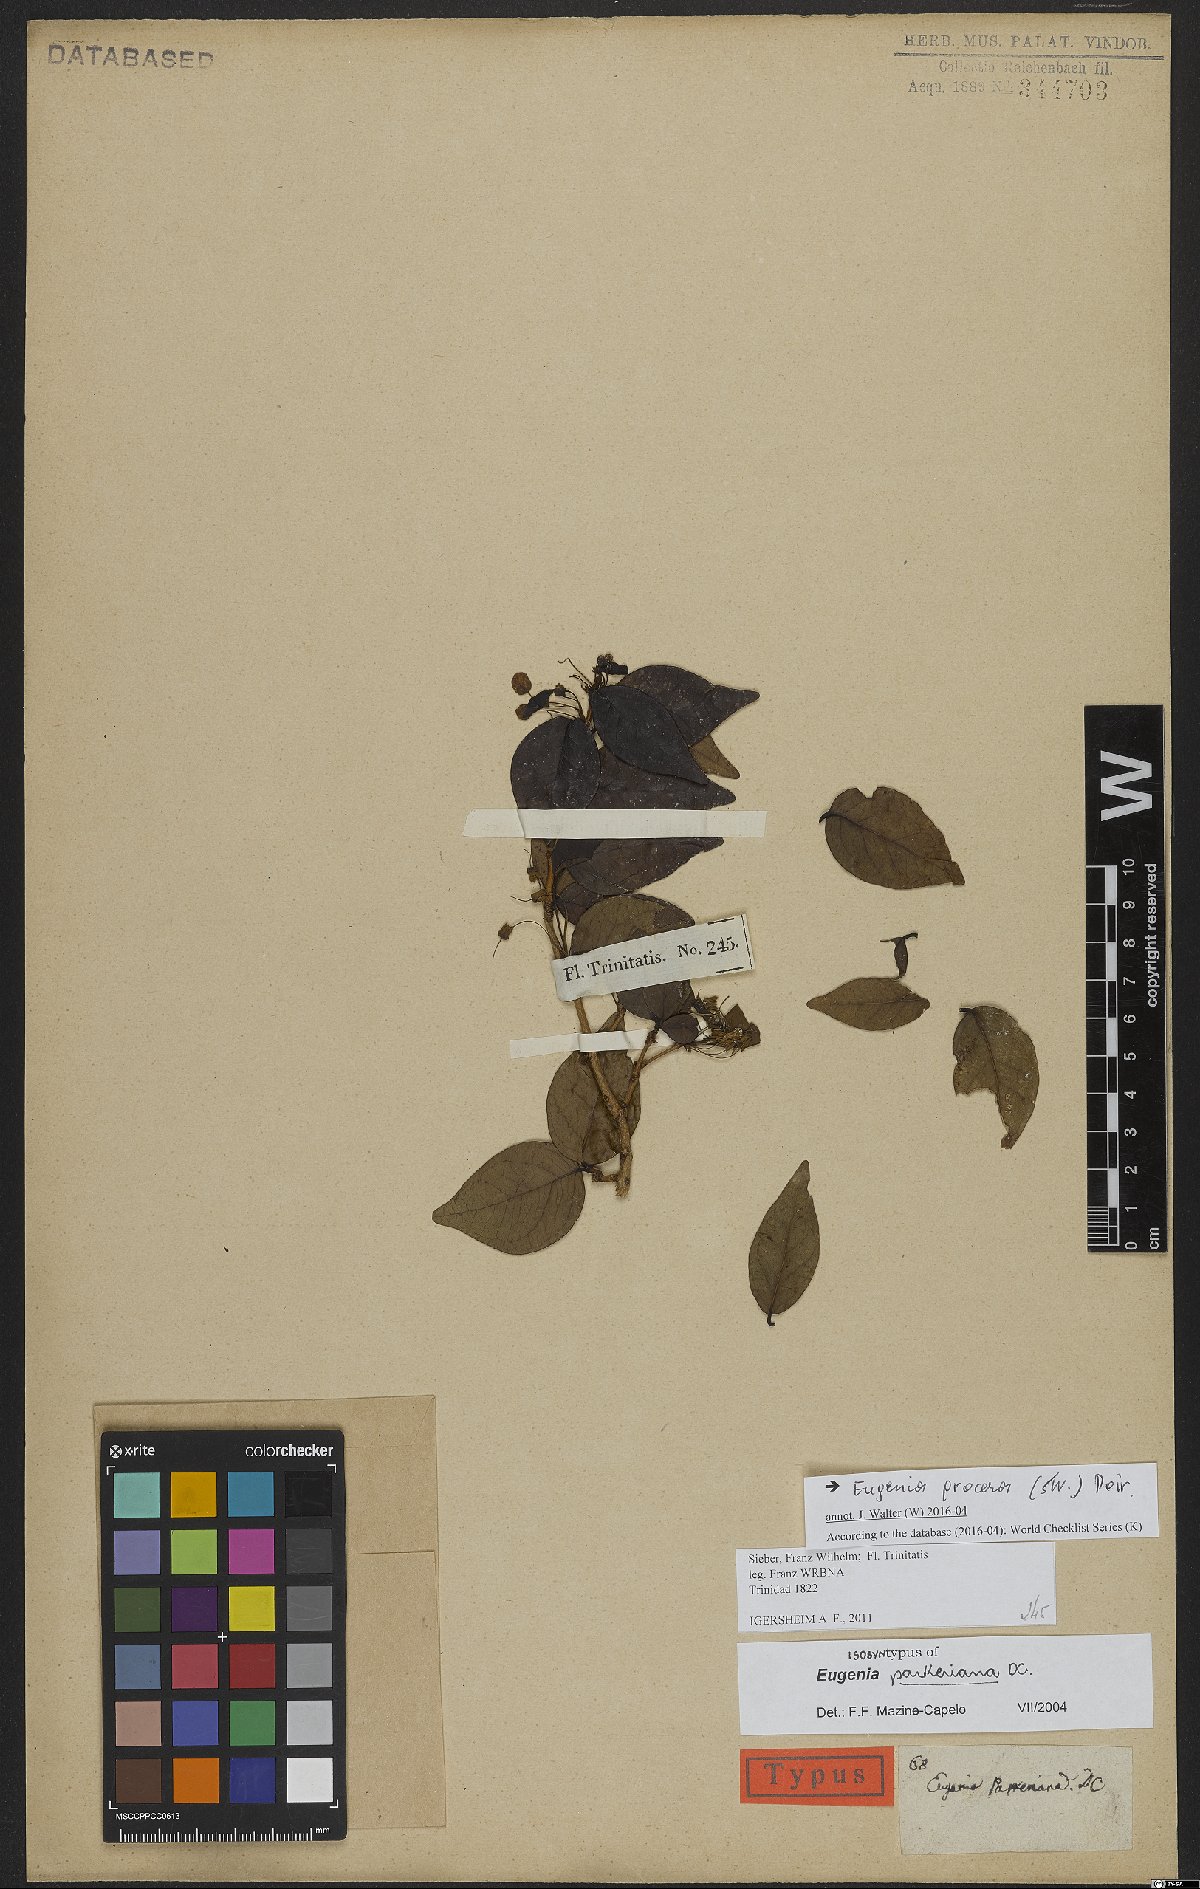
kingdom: Plantae
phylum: Tracheophyta
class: Magnoliopsida
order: Myrtales
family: Myrtaceae
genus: Eugenia
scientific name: Eugenia procera
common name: Bastard blackberry
